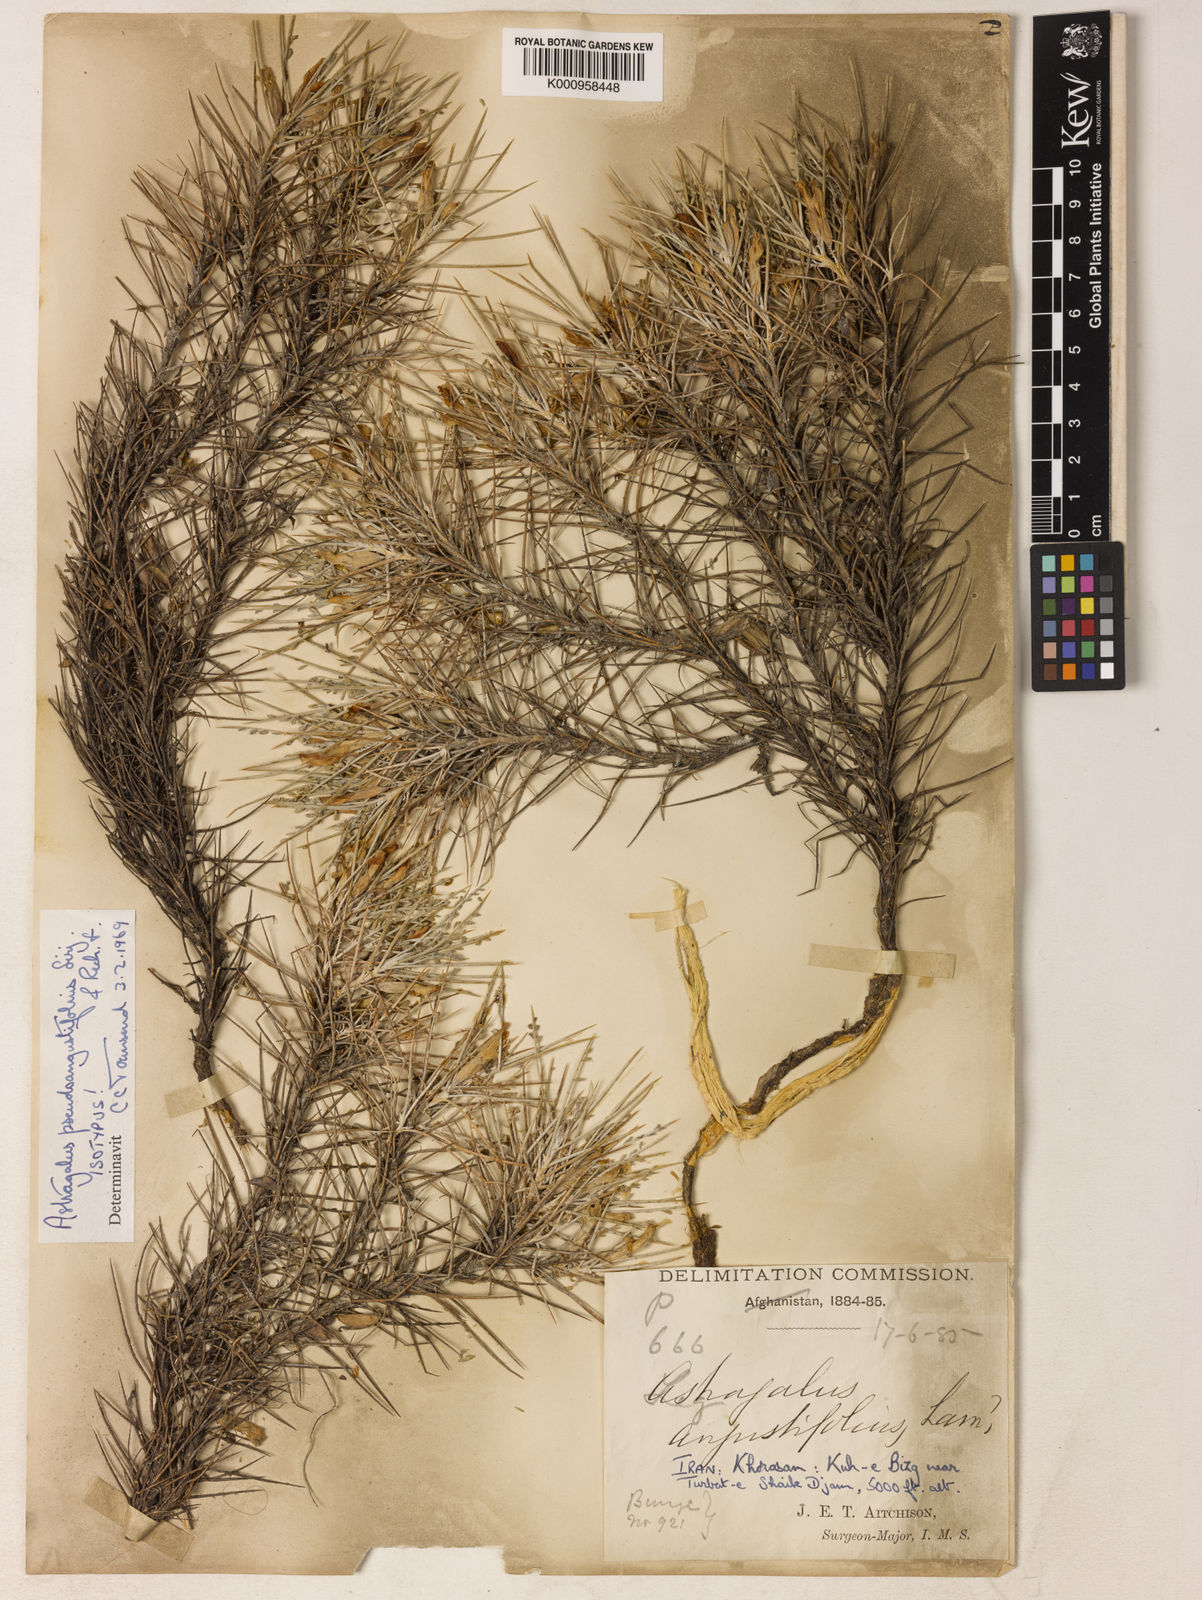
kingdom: Plantae
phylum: Tracheophyta
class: Magnoliopsida
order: Fabales
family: Fabaceae
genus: Astragalus
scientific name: Astragalus
